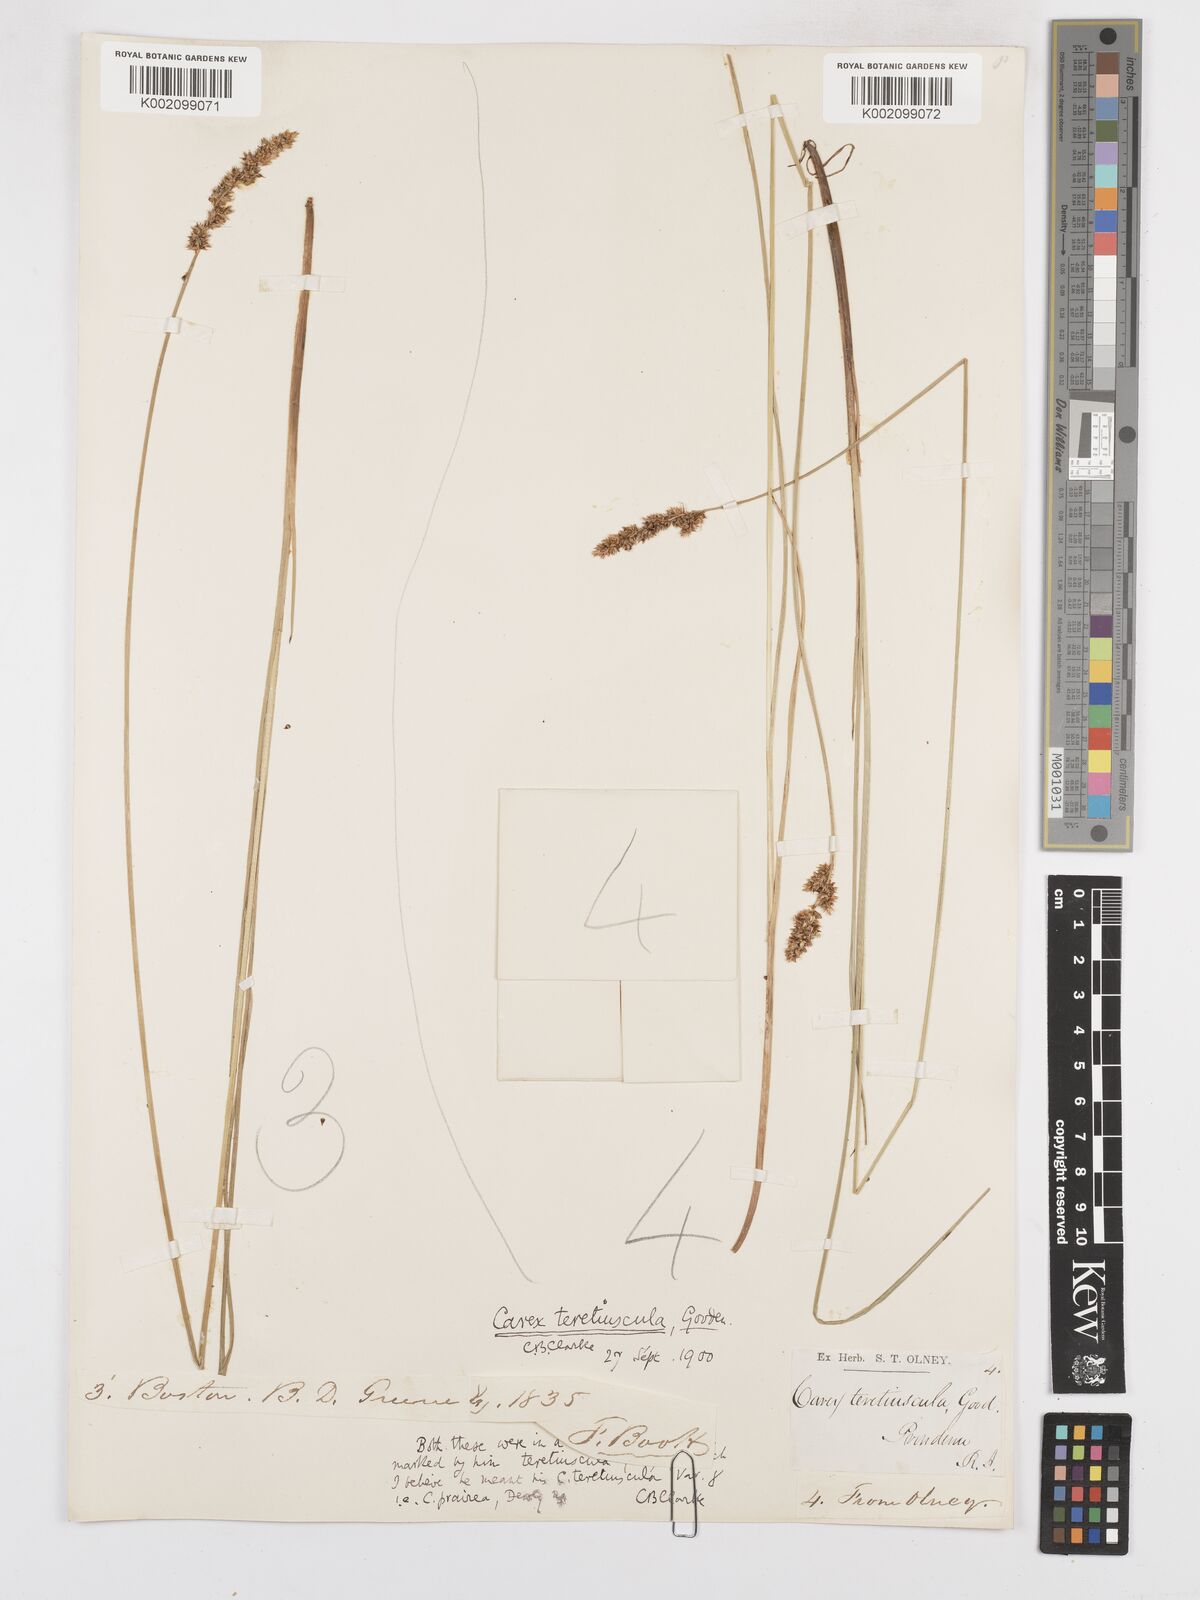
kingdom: Plantae
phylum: Tracheophyta
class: Liliopsida
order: Poales
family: Cyperaceae
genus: Carex
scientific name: Carex diandra
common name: Lesser tussock-sedge
